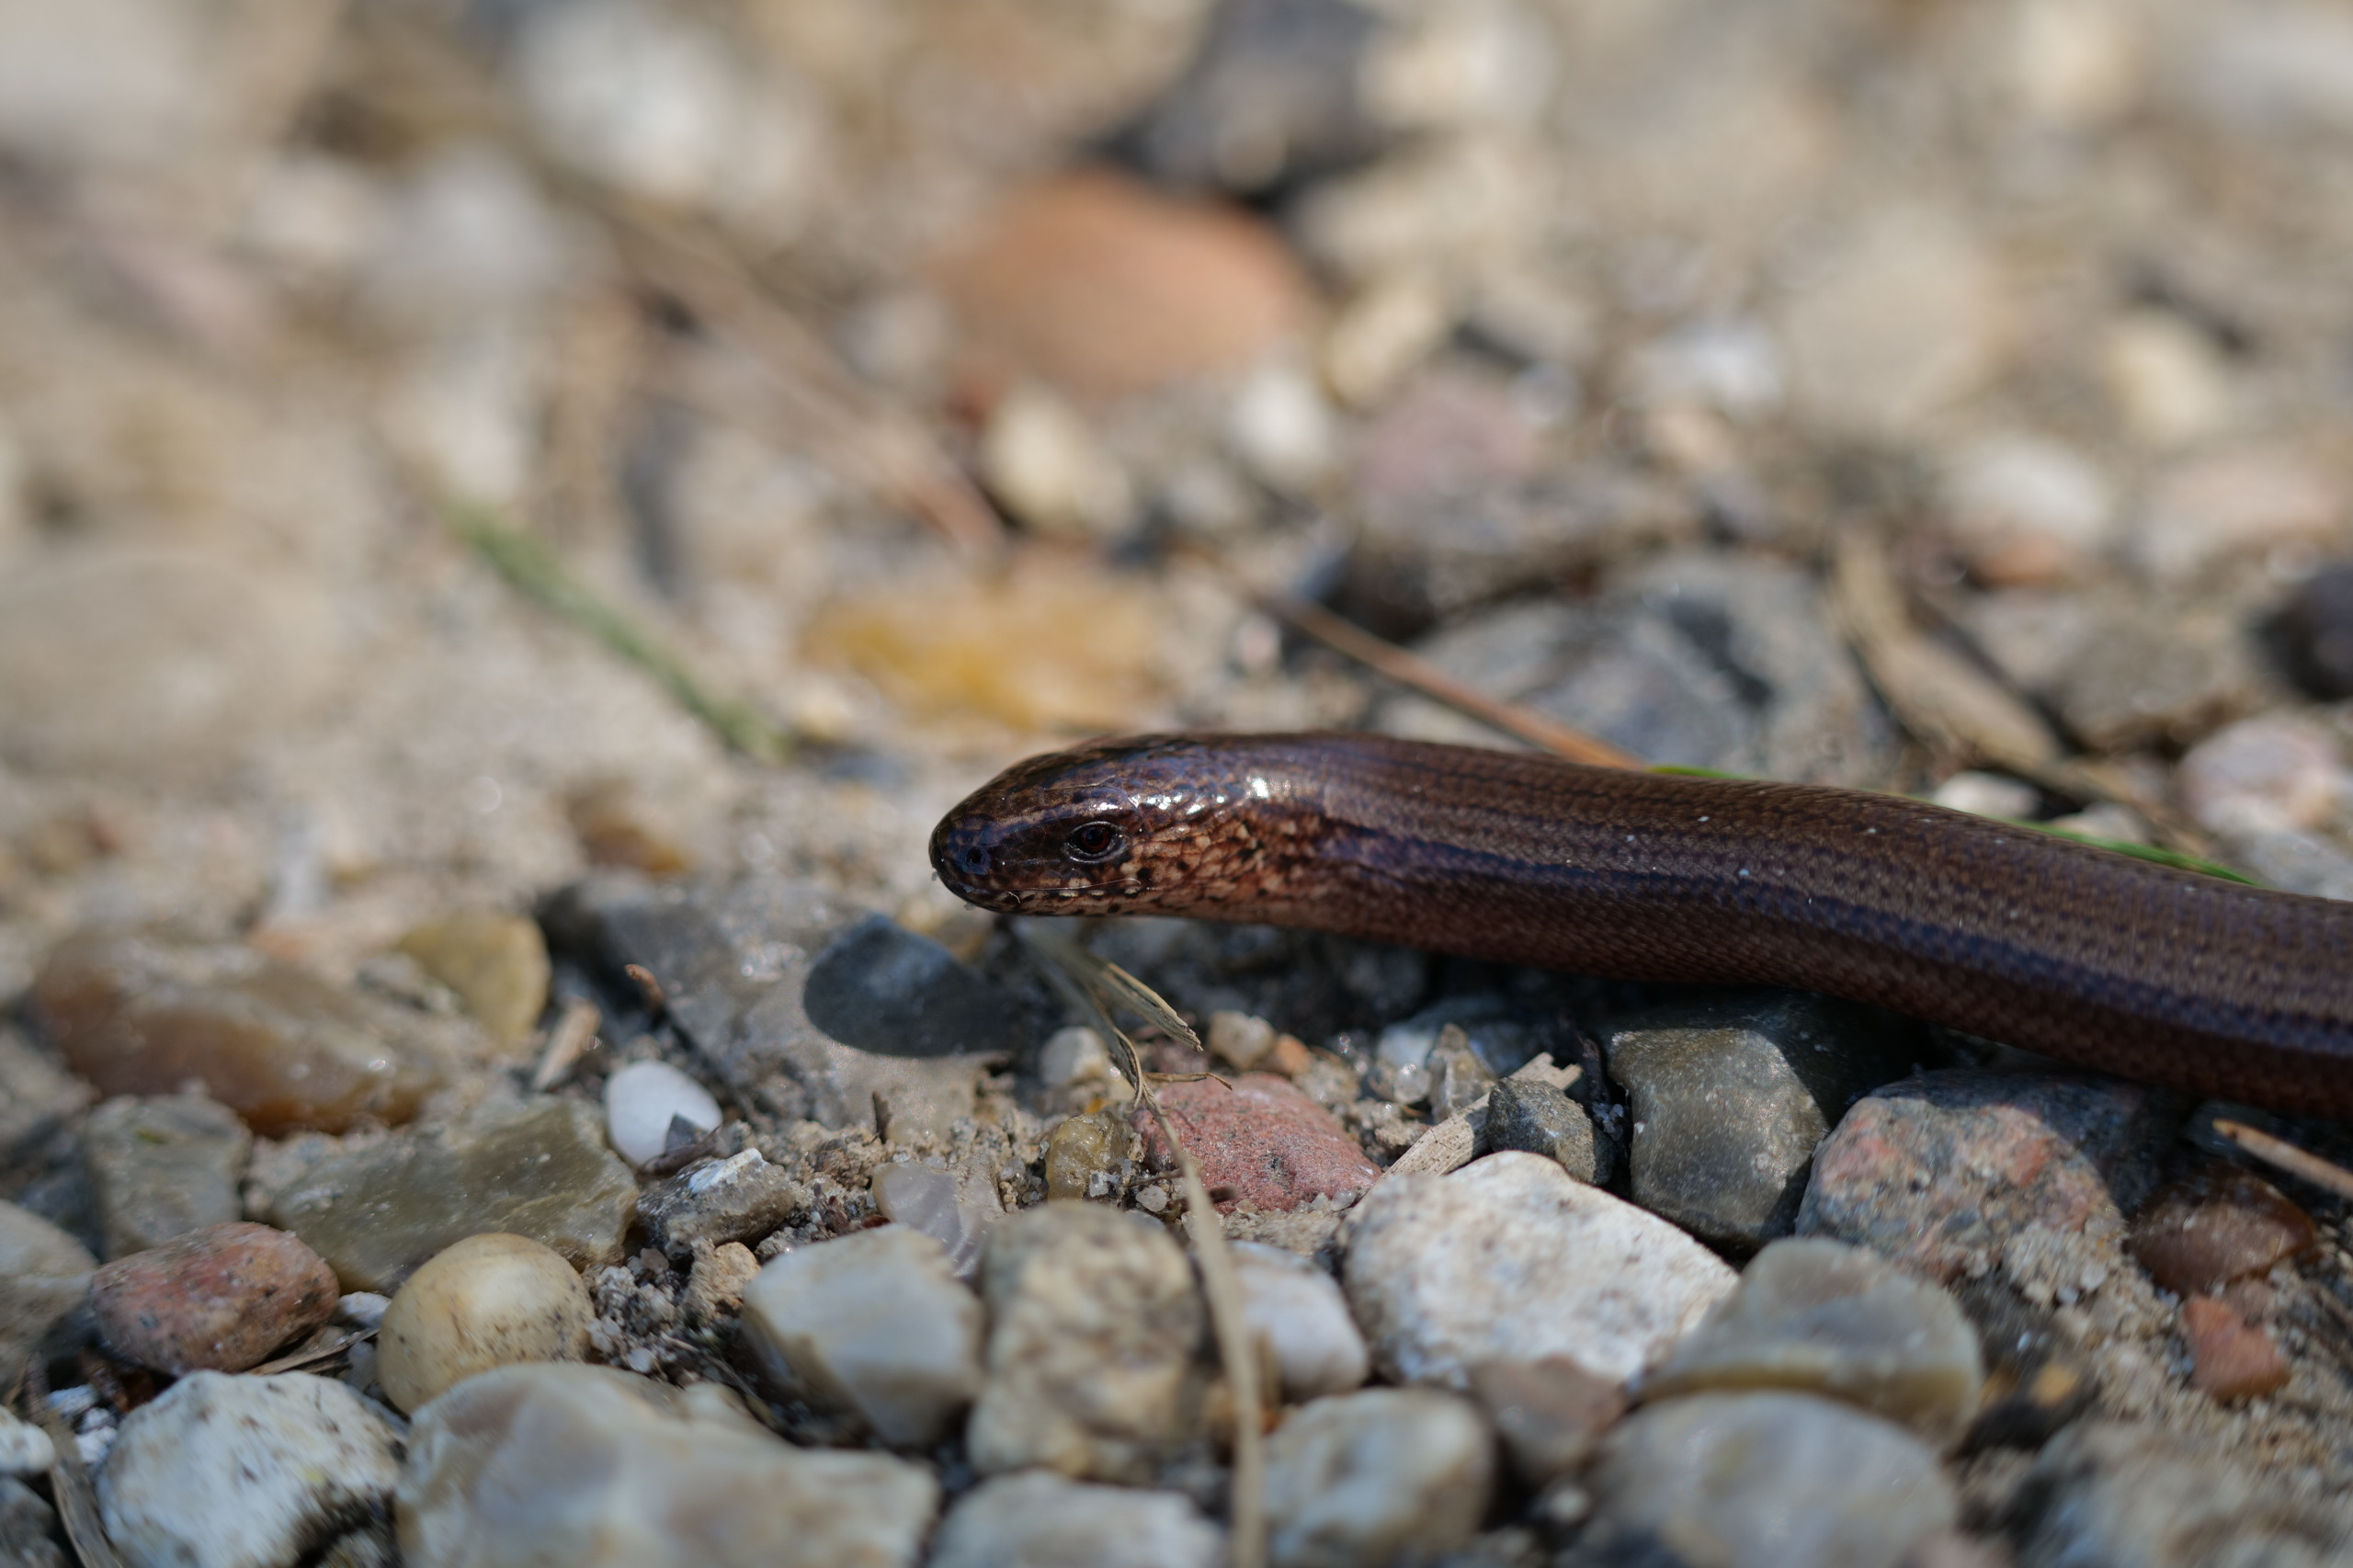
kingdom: Animalia
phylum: Chordata
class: Squamata
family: Anguidae
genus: Anguis
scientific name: Anguis fragilis
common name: Stålorm
